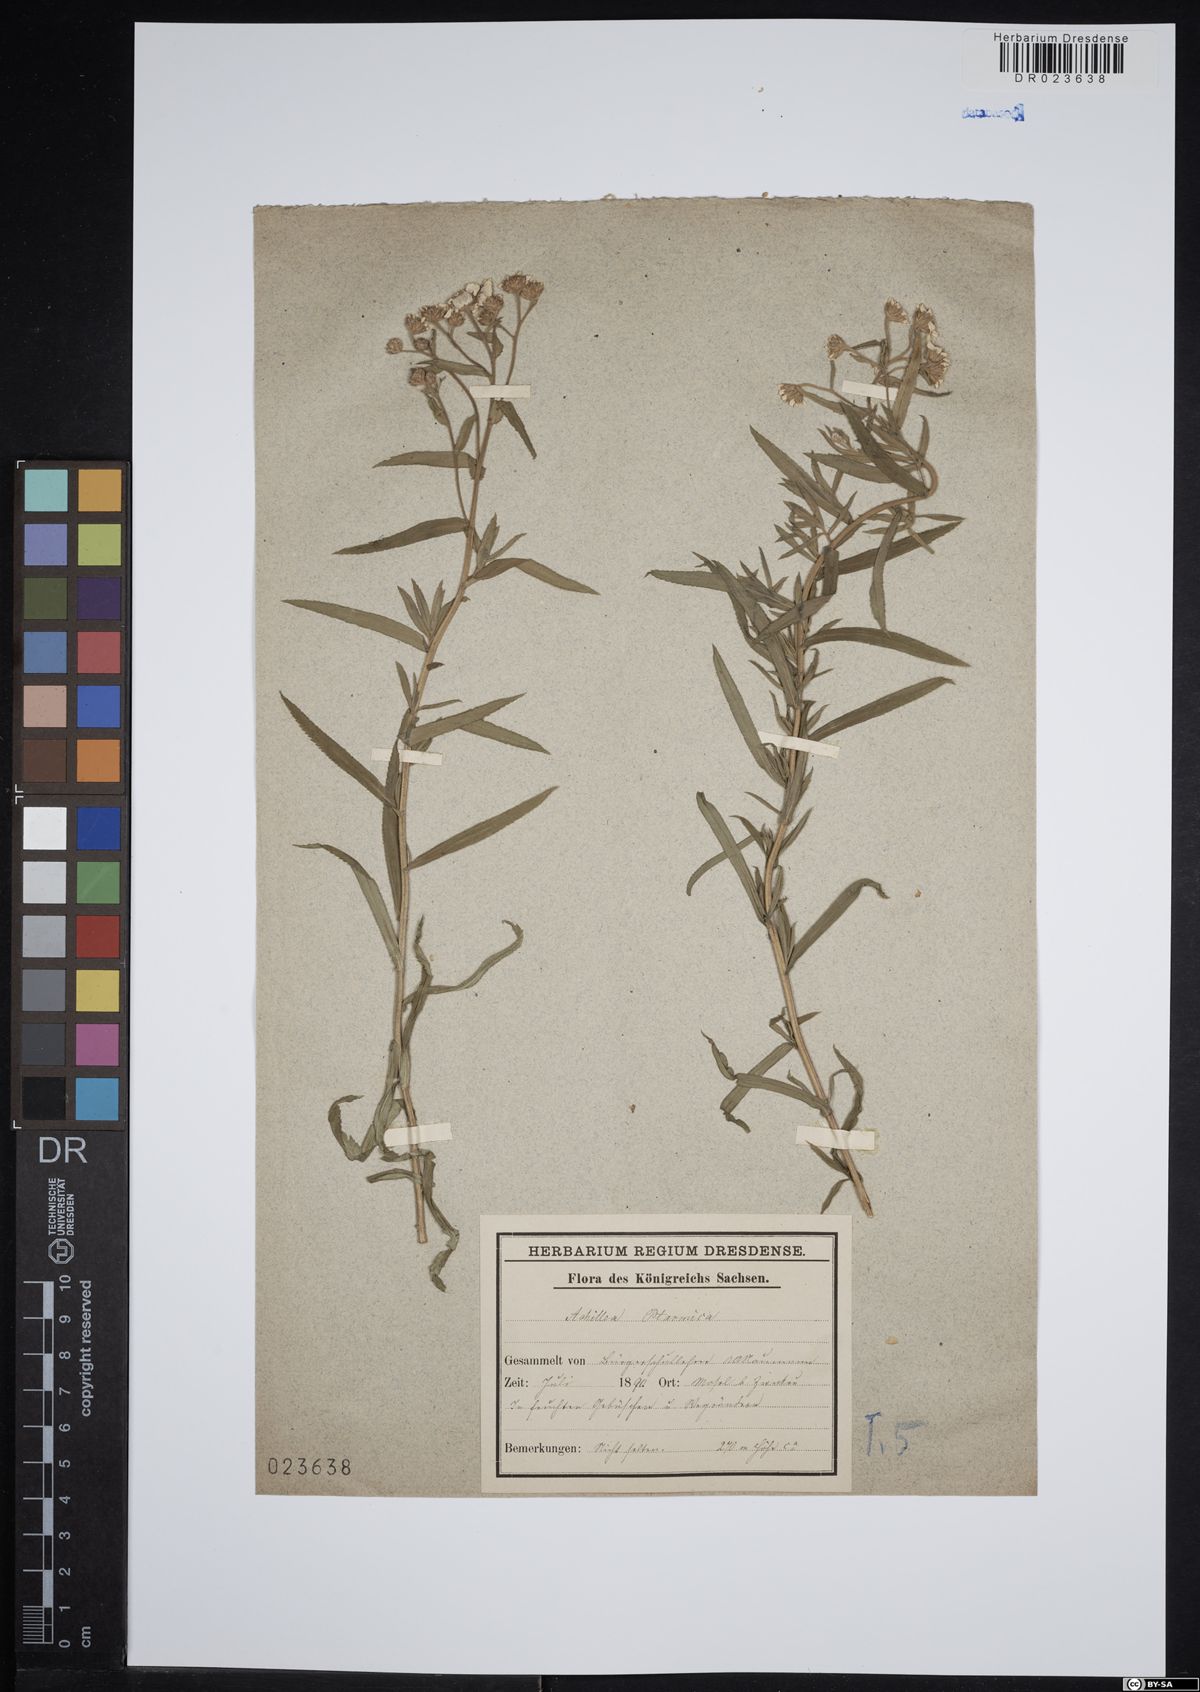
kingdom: Plantae
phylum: Tracheophyta
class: Magnoliopsida
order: Asterales
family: Asteraceae
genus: Achillea
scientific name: Achillea ptarmica
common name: Sneezeweed
